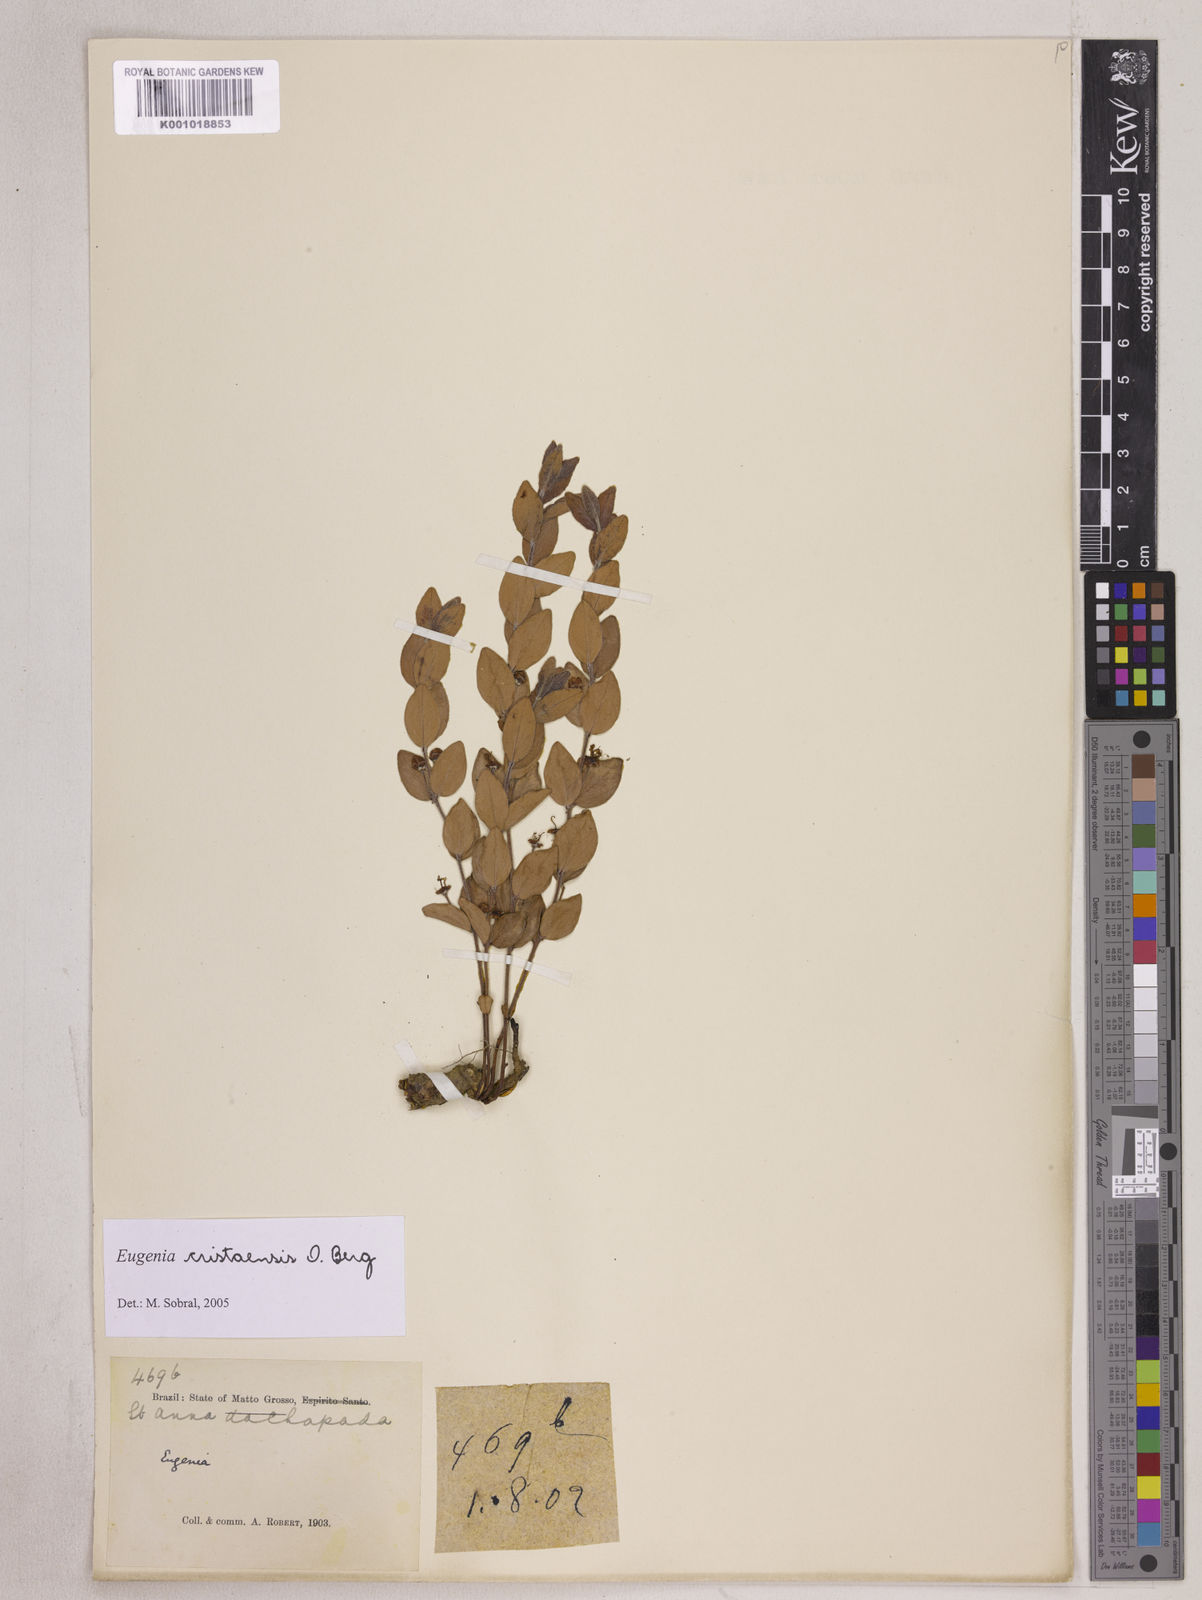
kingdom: Plantae
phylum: Tracheophyta
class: Magnoliopsida
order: Myrtales
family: Myrtaceae
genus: Eugenia
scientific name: Eugenia cristaensis
